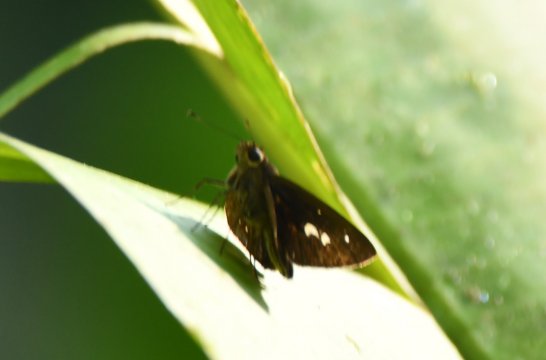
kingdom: Animalia
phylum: Arthropoda
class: Insecta
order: Lepidoptera
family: Hesperiidae
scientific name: Hesperiidae
